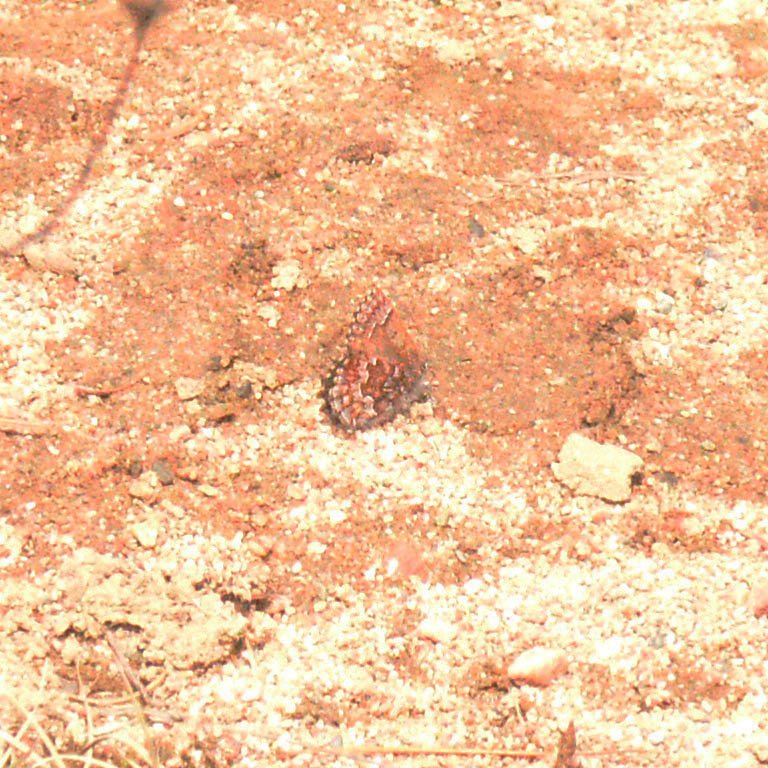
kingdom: Animalia
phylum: Arthropoda
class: Insecta
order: Lepidoptera
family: Lycaenidae
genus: Incisalia
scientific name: Incisalia niphon
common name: Eastern Pine Elfin
